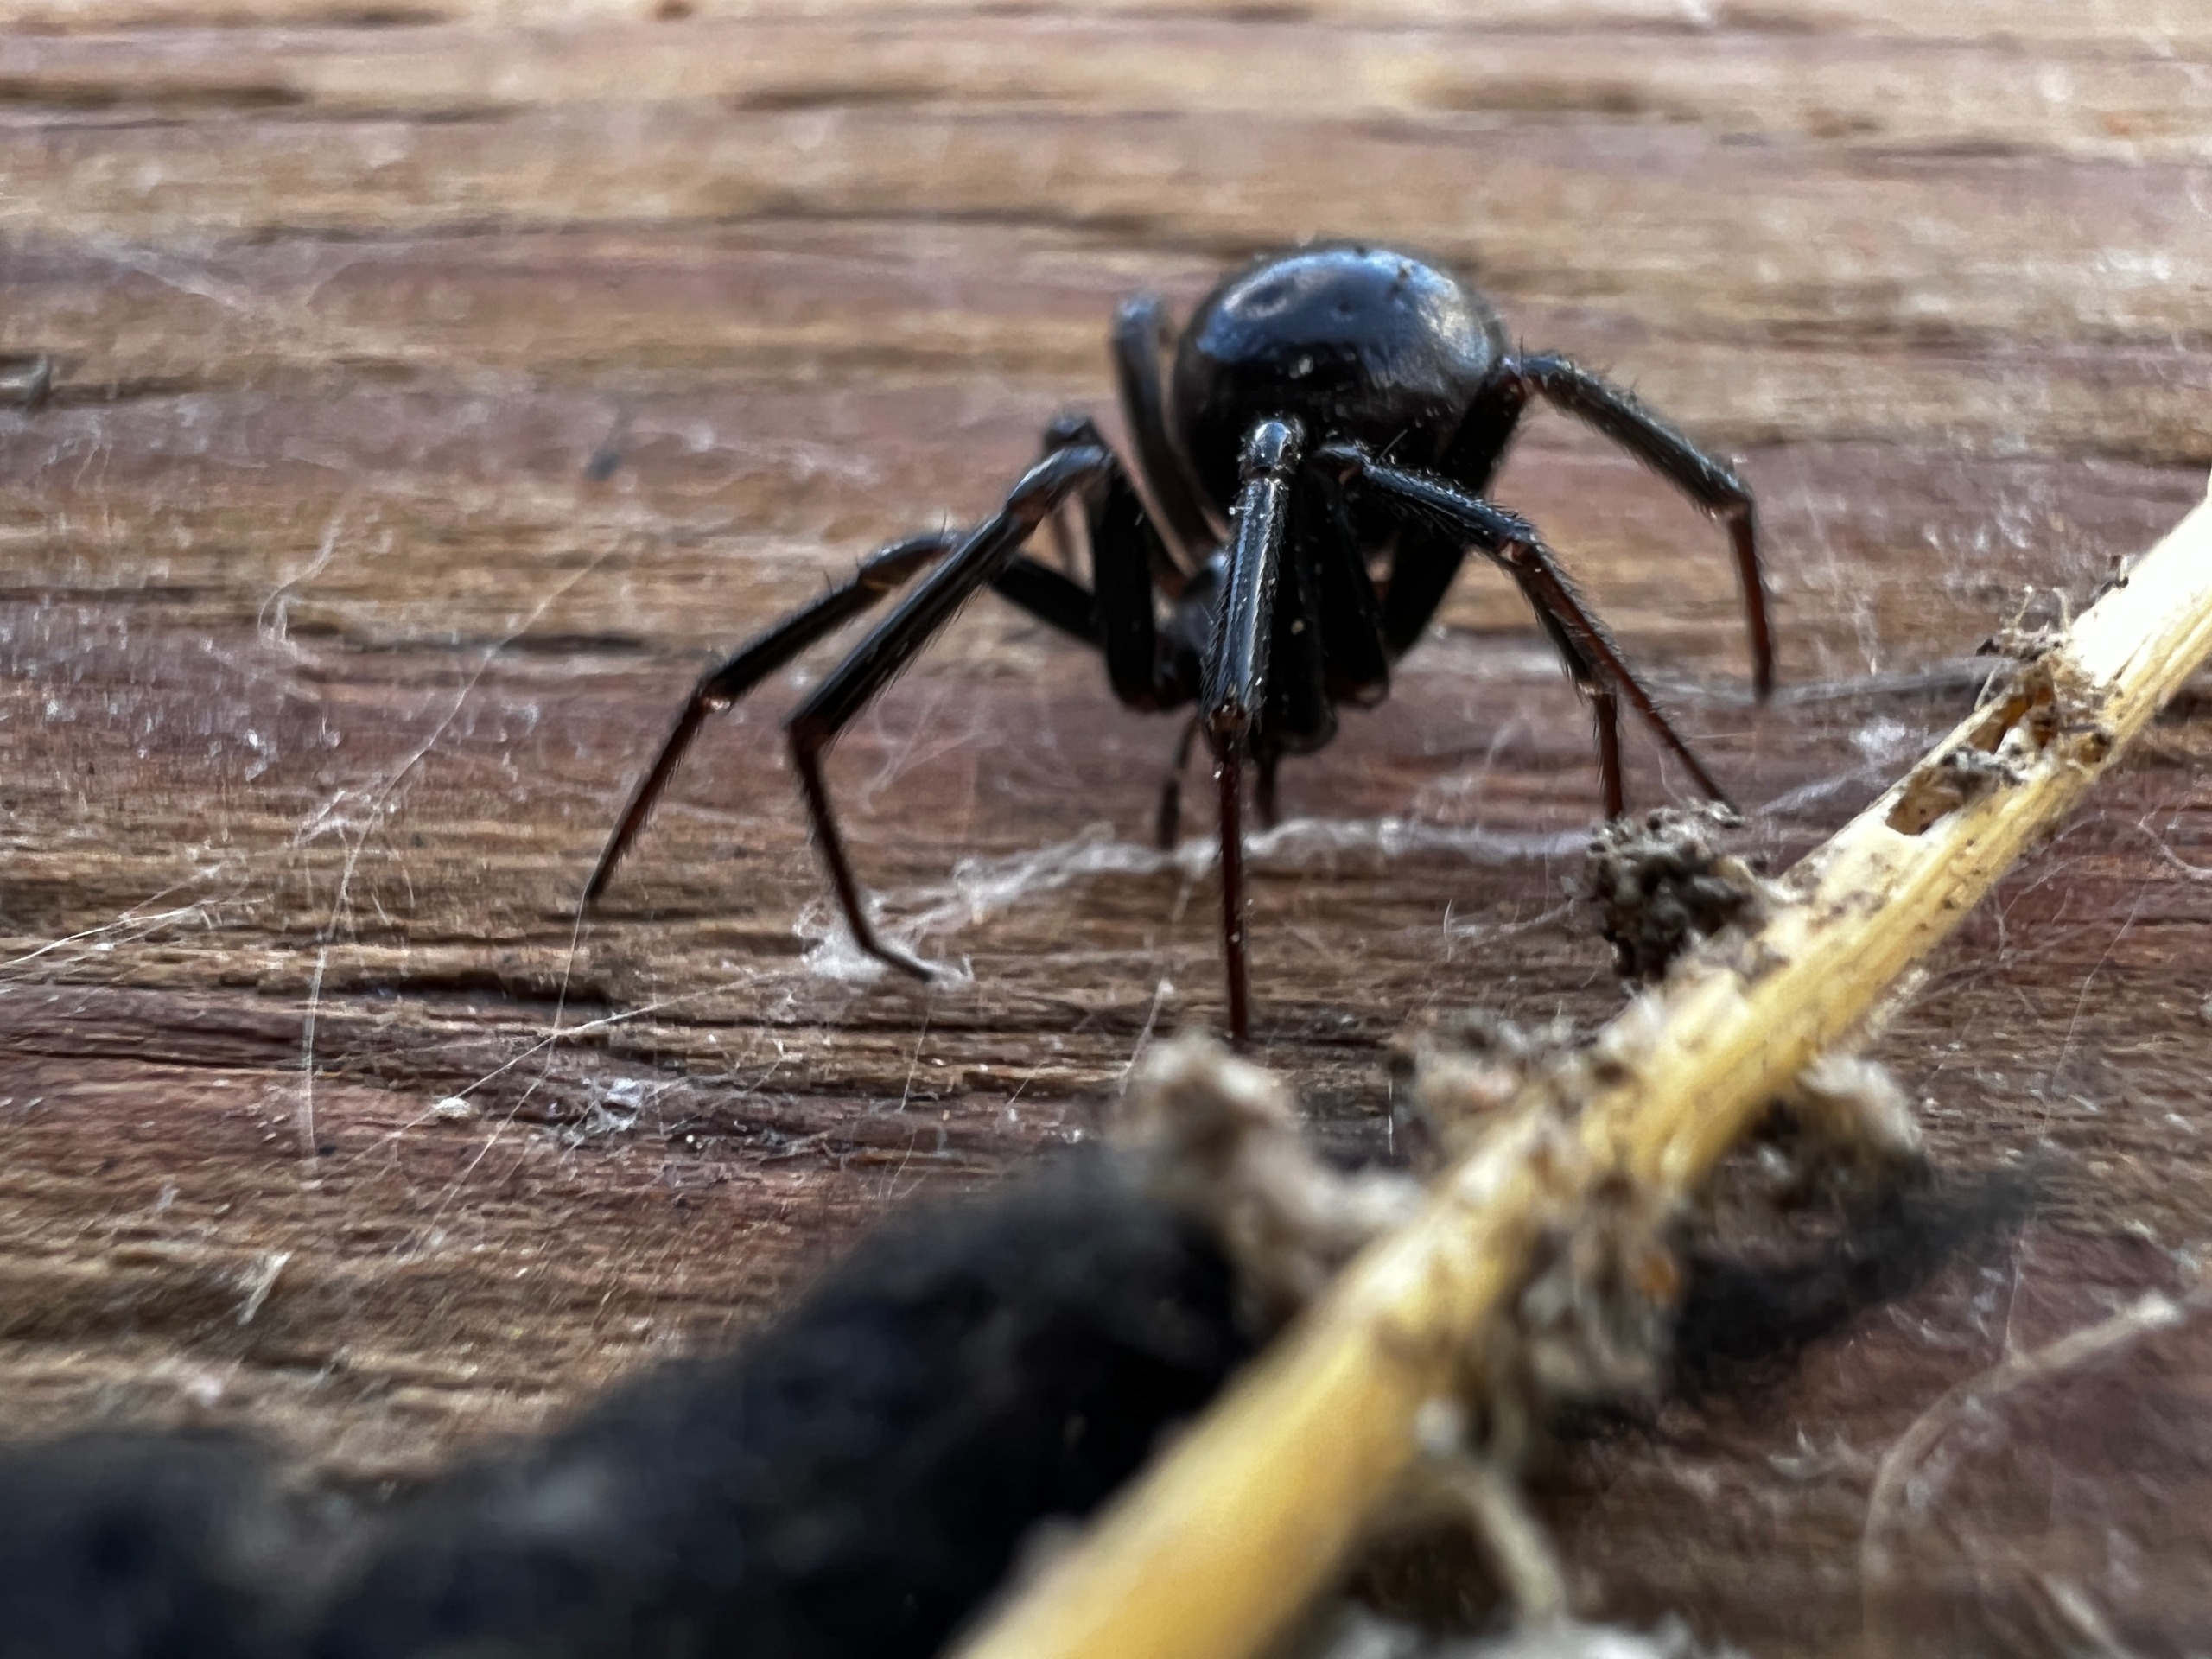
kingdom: Animalia
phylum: Arthropoda
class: Arachnida
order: Araneae
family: Theridiidae
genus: Steatoda
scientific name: Steatoda grossa
